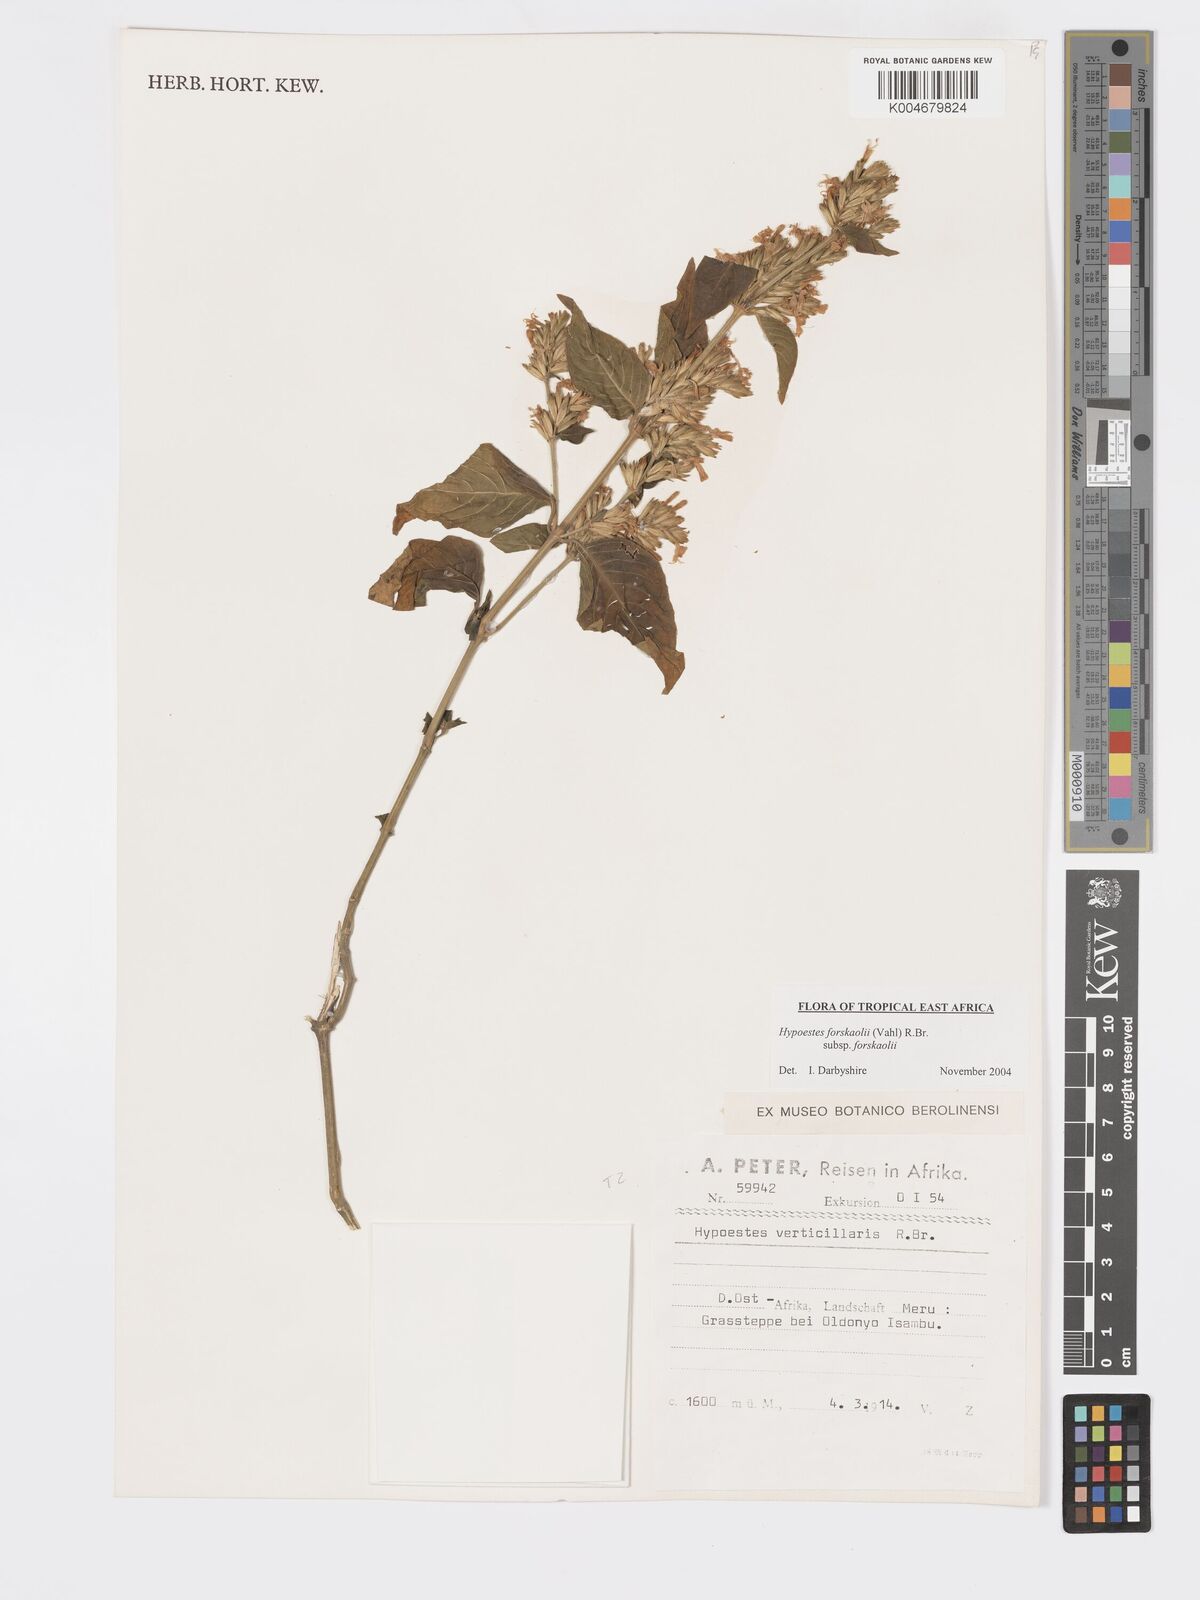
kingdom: Plantae
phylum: Tracheophyta
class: Magnoliopsida
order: Lamiales
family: Acanthaceae
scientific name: Acanthaceae
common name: Acanthaceae
